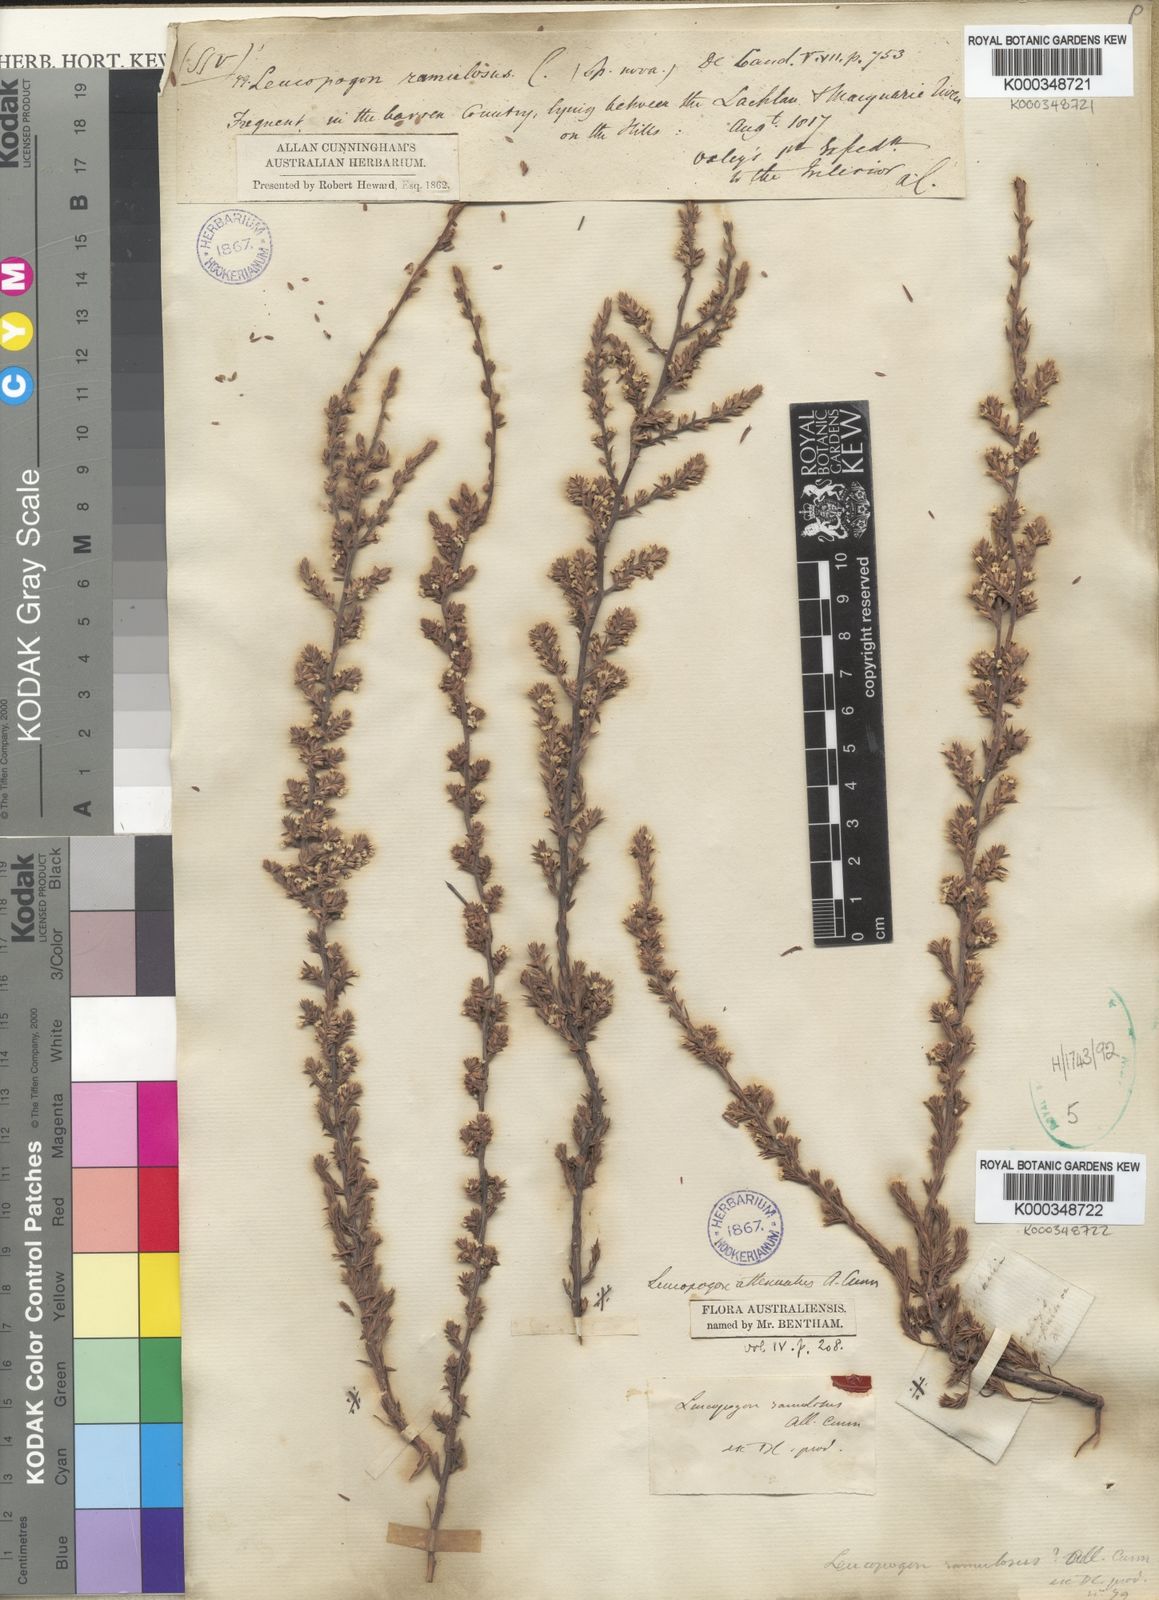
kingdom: Plantae
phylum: Tracheophyta
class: Magnoliopsida
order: Ericales
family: Ericaceae
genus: Styphelia
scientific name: Styphelia attenuata
